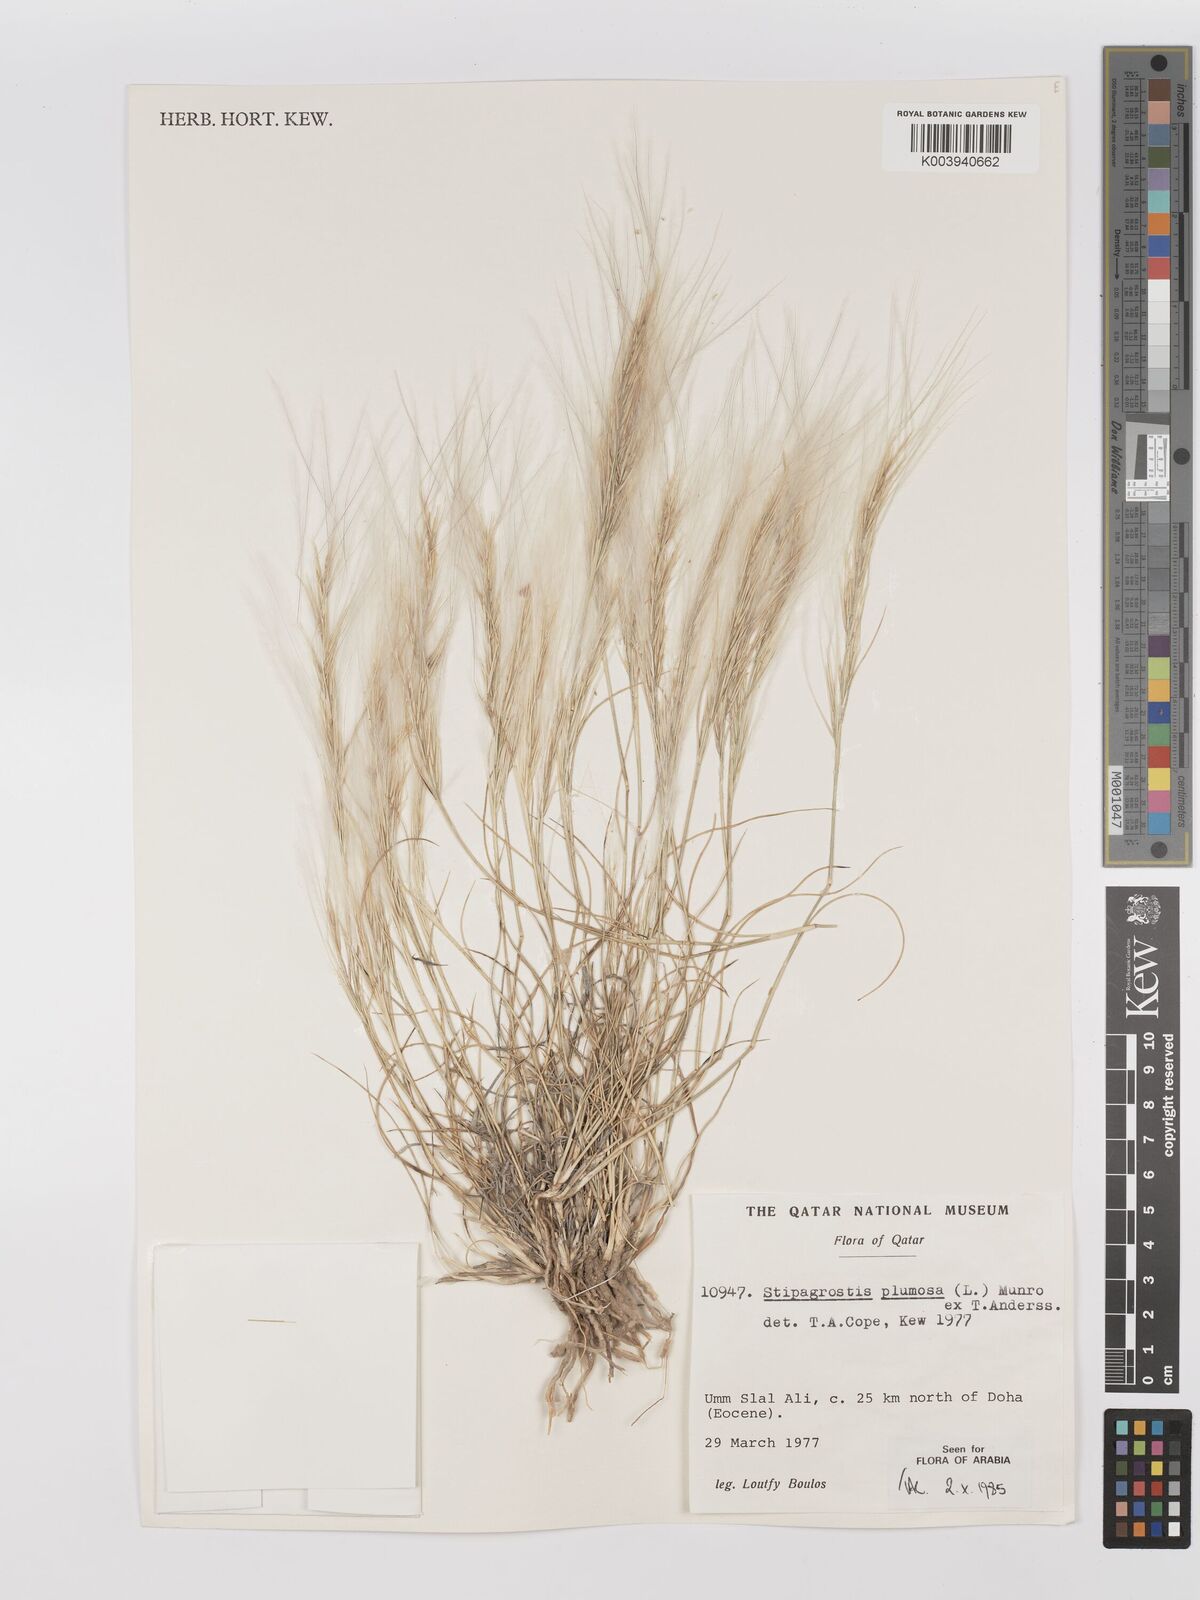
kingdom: Plantae
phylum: Tracheophyta
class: Liliopsida
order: Poales
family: Poaceae
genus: Stipagrostis
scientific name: Stipagrostis plumosa
